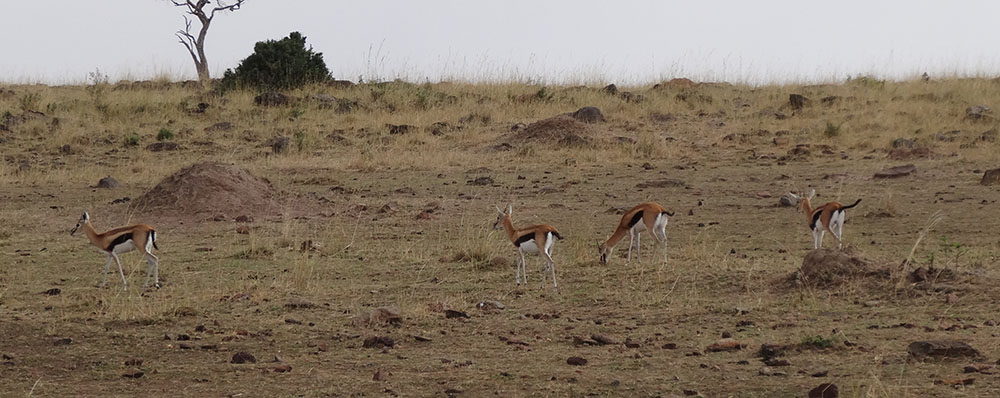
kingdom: Animalia
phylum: Chordata
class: Mammalia
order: Artiodactyla
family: Bovidae
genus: Eudorcas
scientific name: Eudorcas thomsonii
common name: Thomson's gazelle
